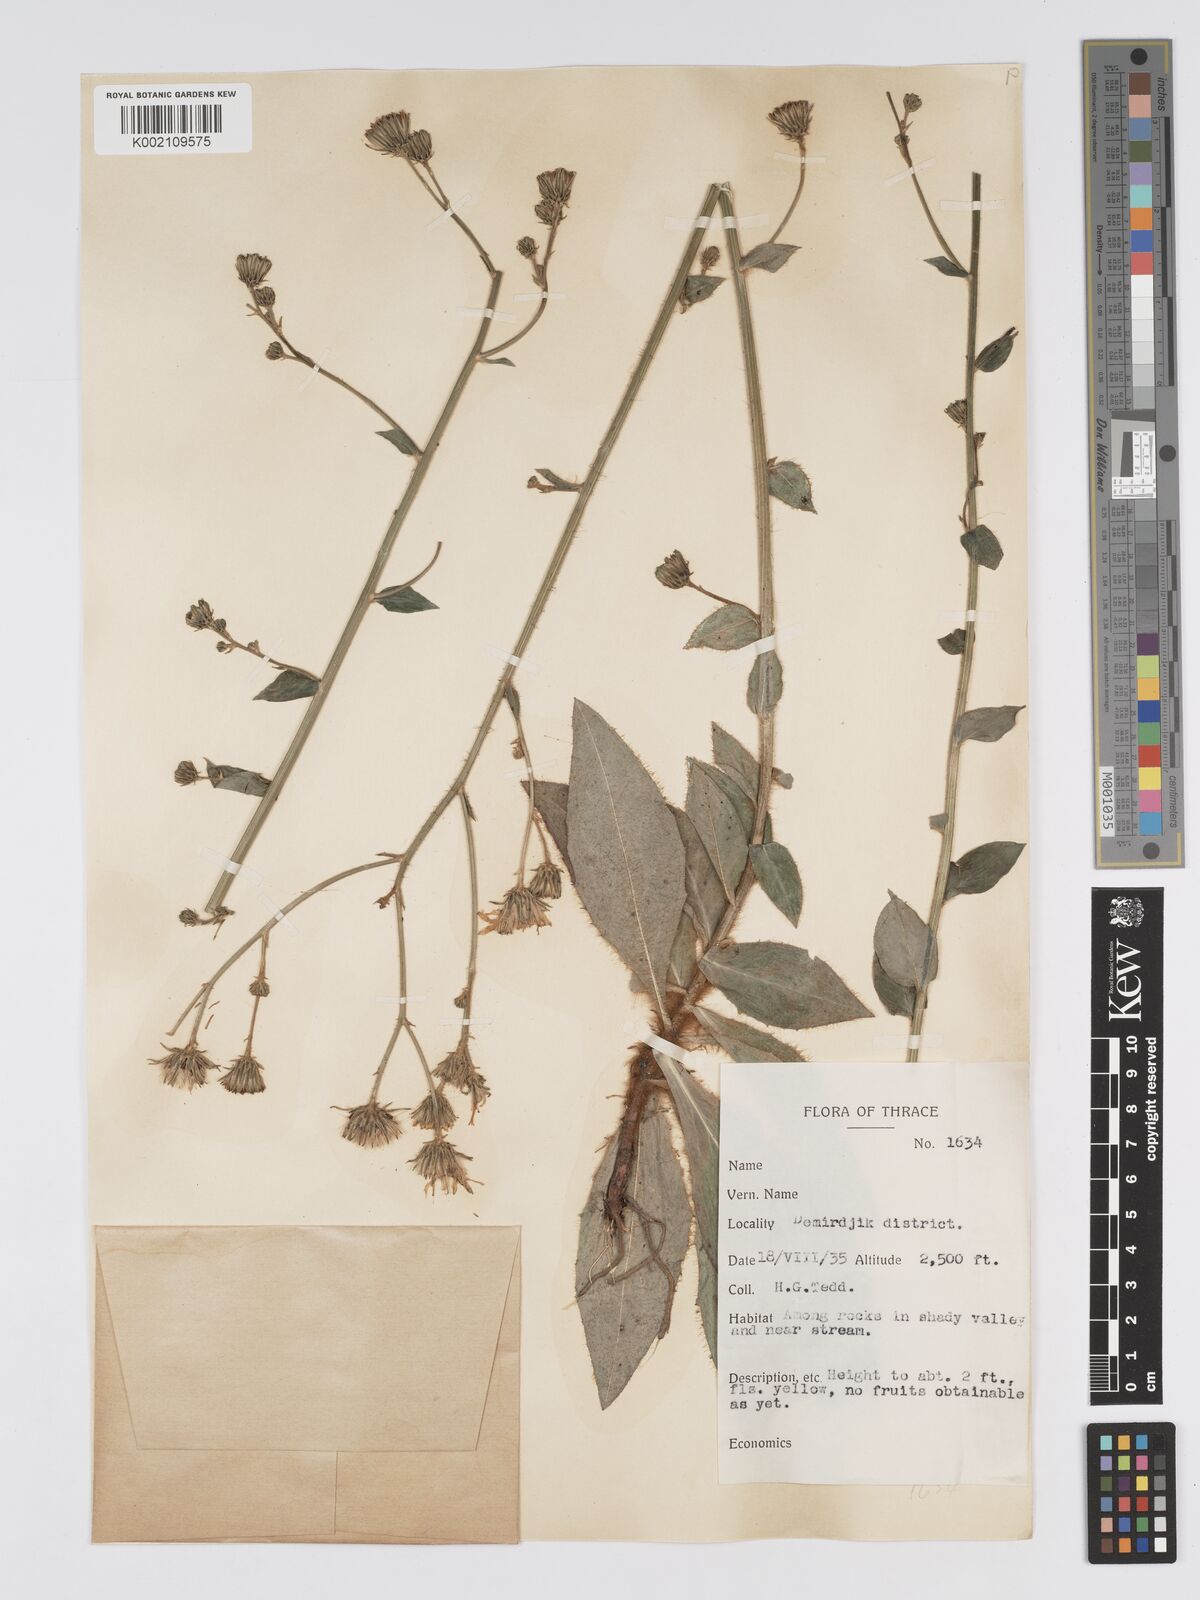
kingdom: Plantae
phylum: Tracheophyta
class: Magnoliopsida
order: Asterales
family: Asteraceae
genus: Hieracium
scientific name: Hieracium racemosum
